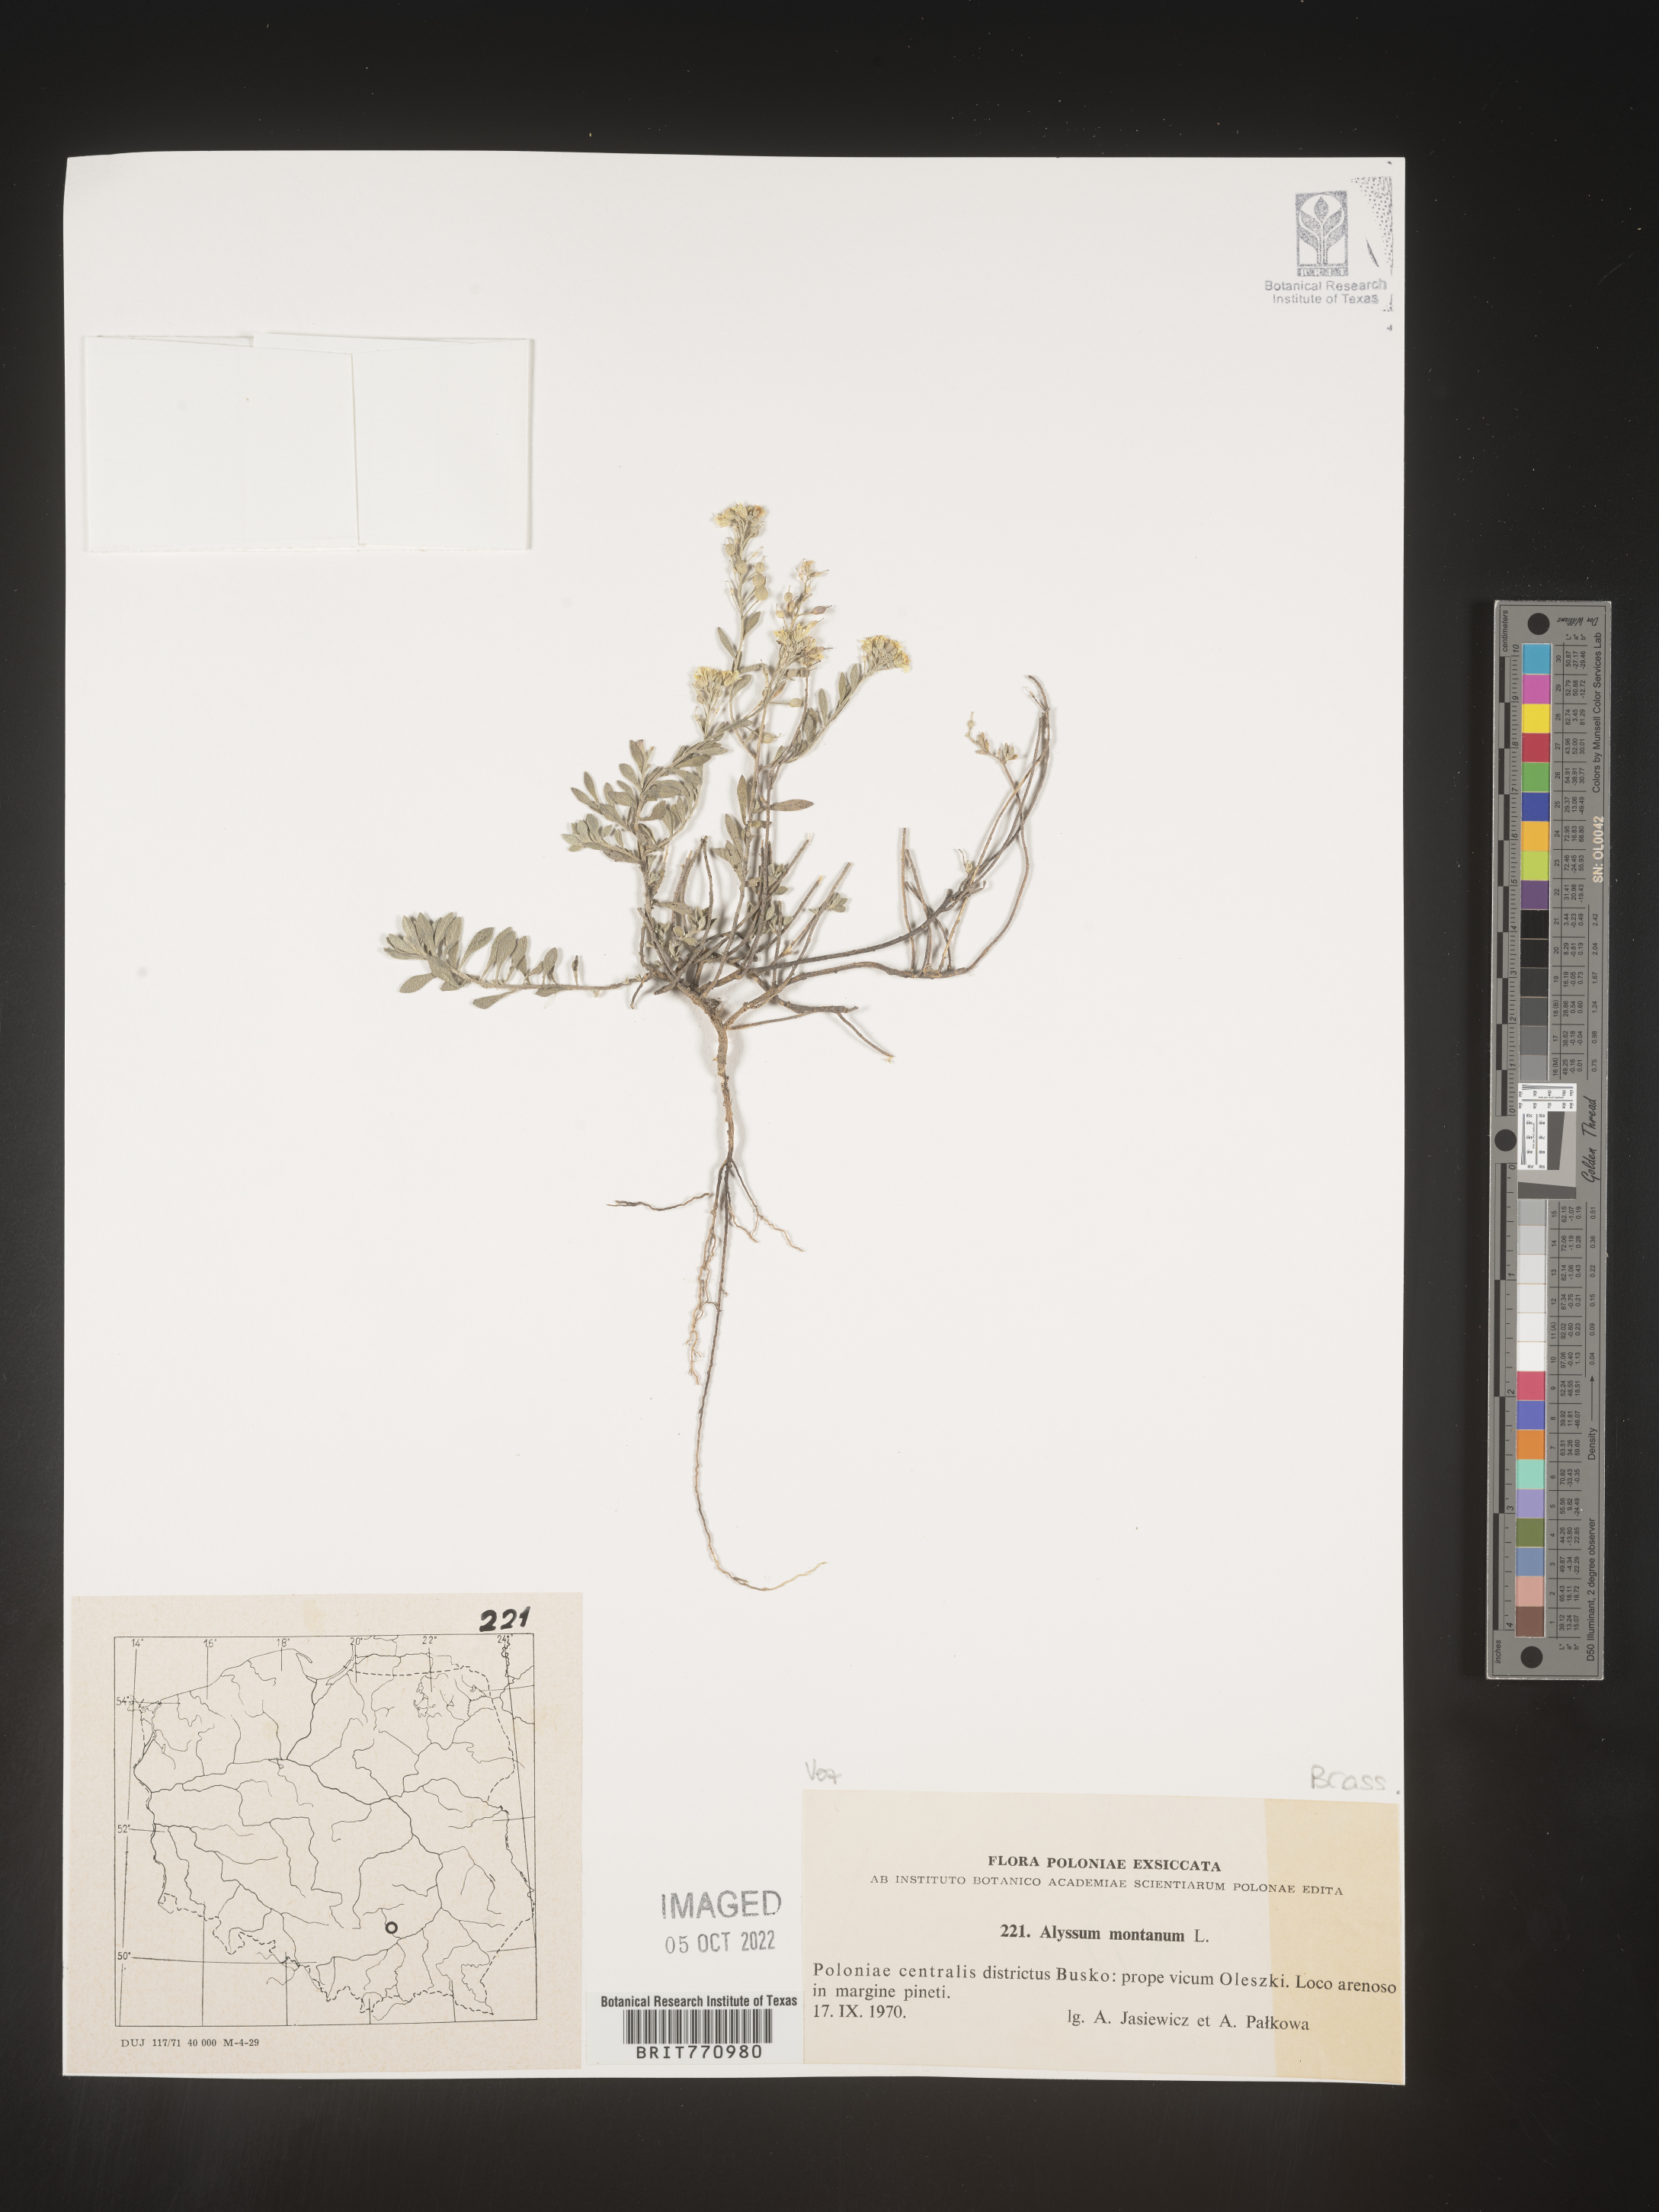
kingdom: Plantae
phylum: Tracheophyta
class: Magnoliopsida
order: Brassicales
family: Brassicaceae
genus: Alyssum
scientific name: Alyssum
